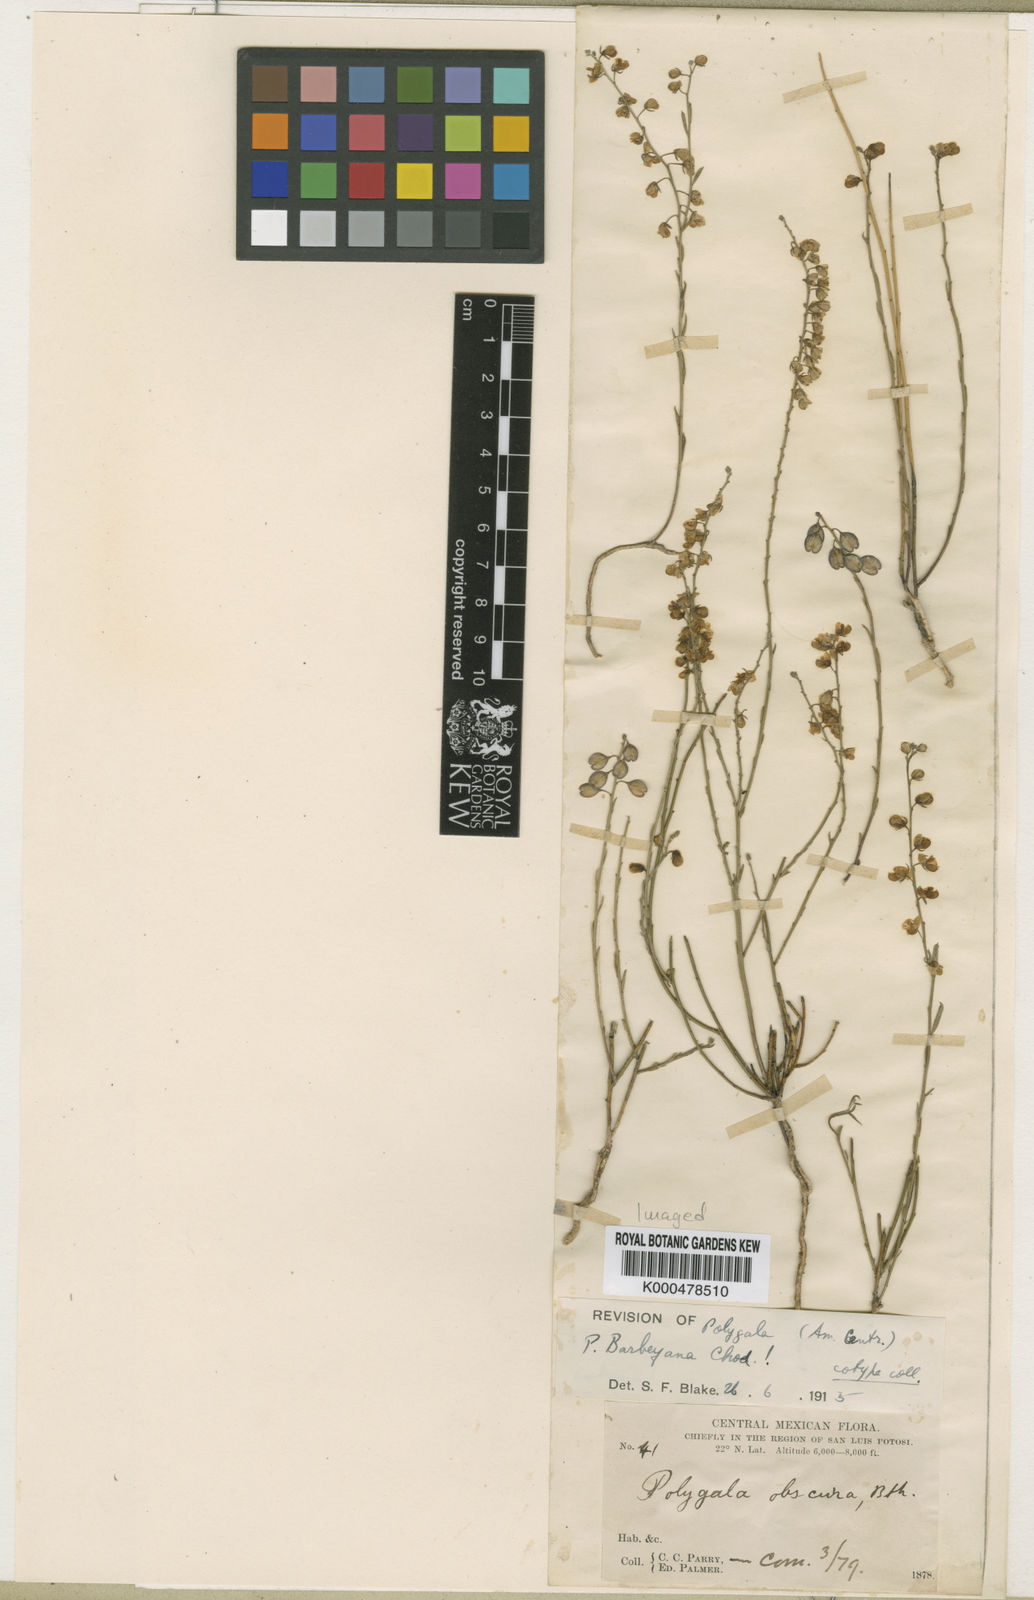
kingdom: Plantae
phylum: Tracheophyta
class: Magnoliopsida
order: Fabales
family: Polygalaceae
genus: Hebecarpa
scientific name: Hebecarpa barbeyana
